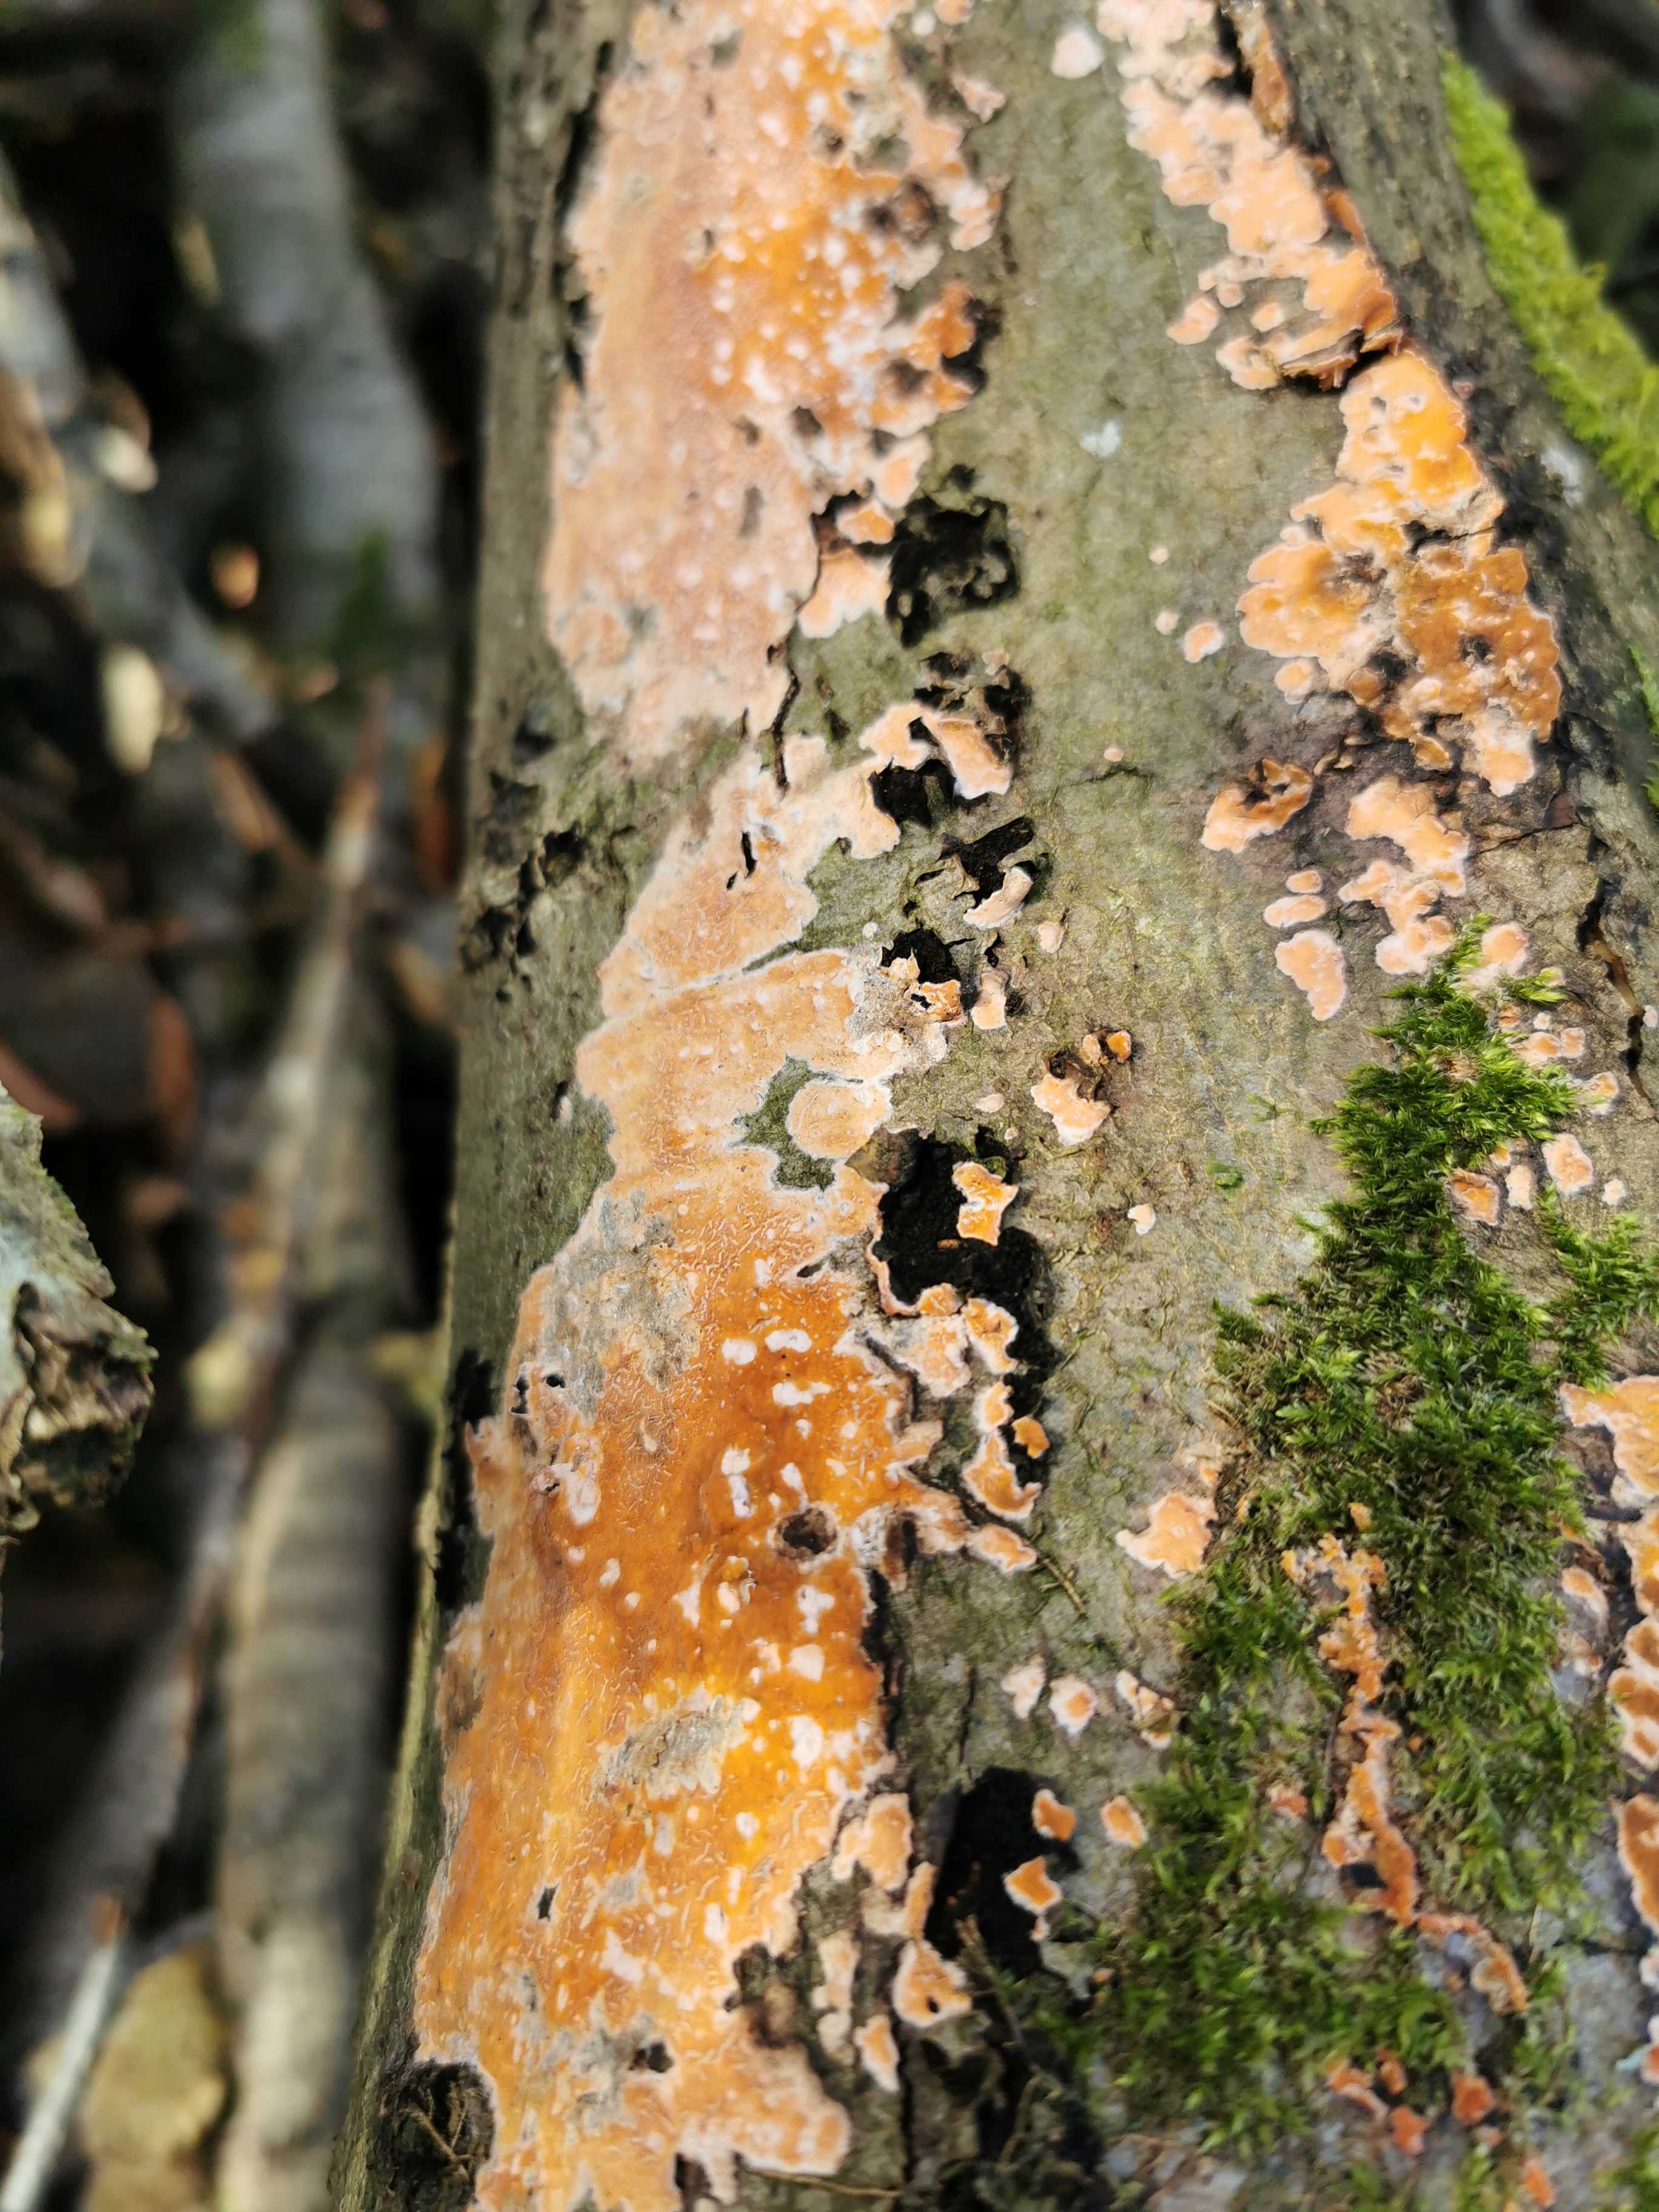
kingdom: Fungi
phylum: Basidiomycota
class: Agaricomycetes
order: Russulales
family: Peniophoraceae
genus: Peniophora
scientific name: Peniophora incarnata
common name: laksefarvet voksskind
